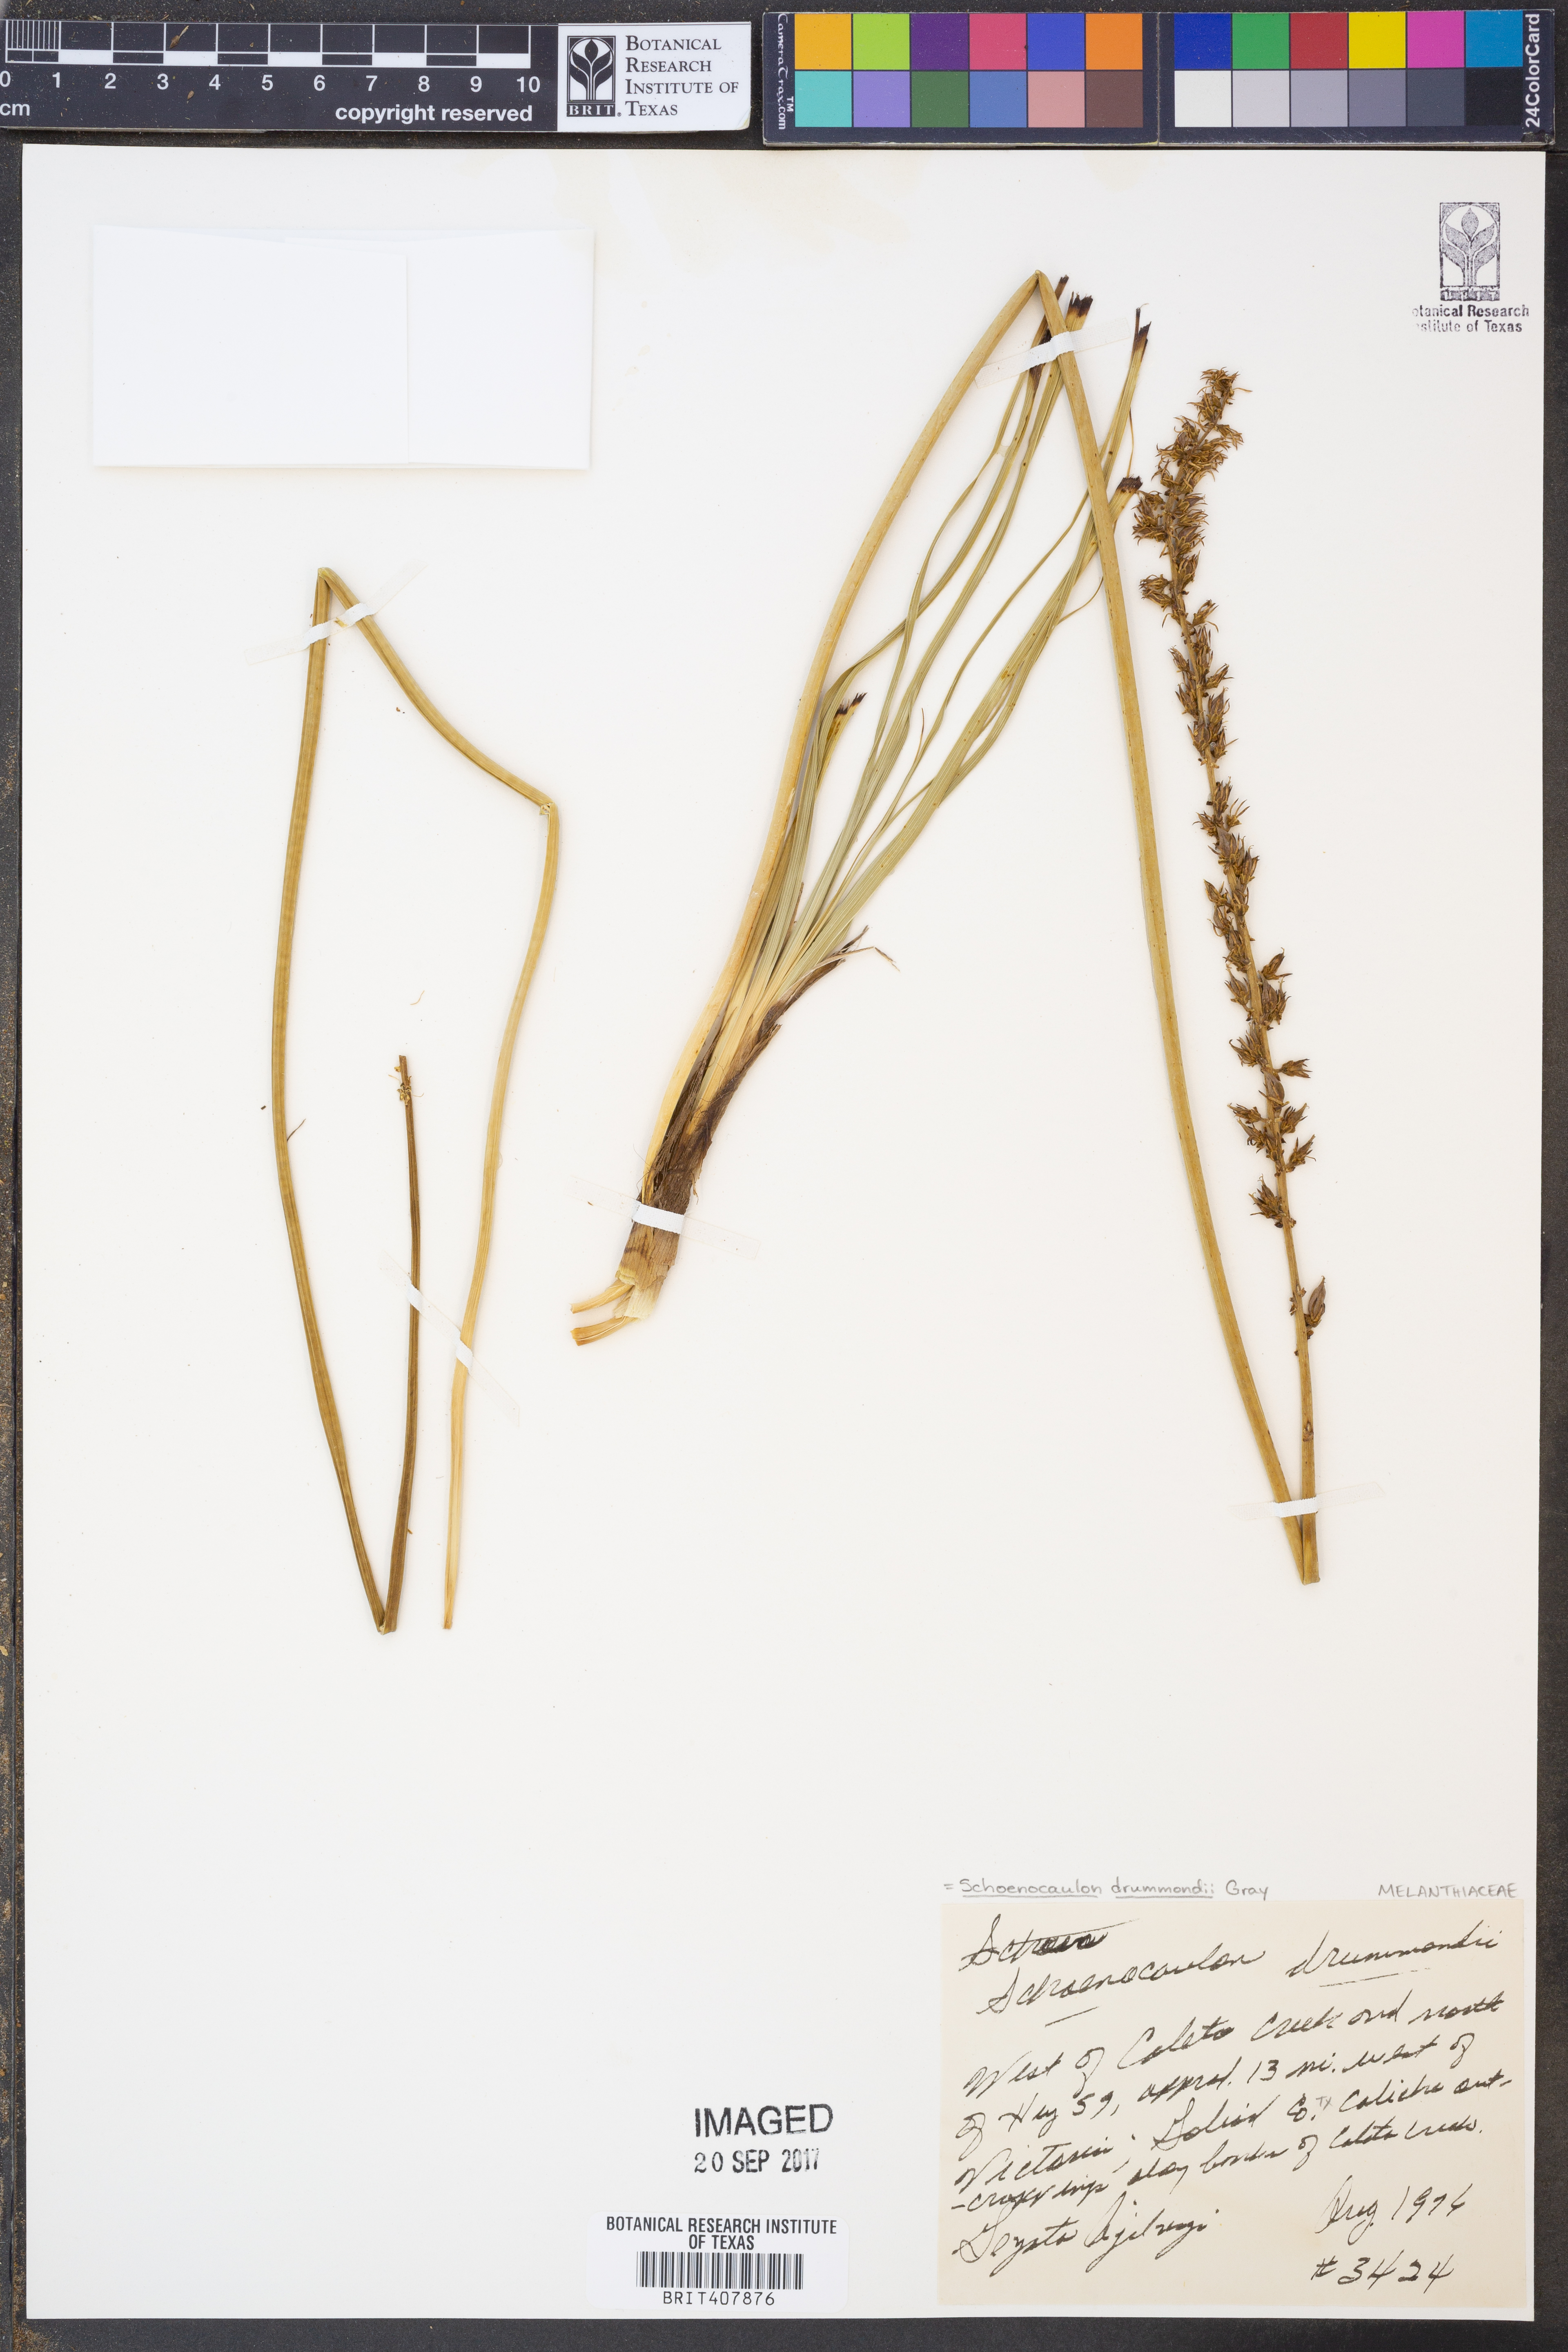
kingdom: Plantae
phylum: Tracheophyta
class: Liliopsida
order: Liliales
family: Melanthiaceae
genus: Schoenocaulon
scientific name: Schoenocaulon ghiesbreghtii
